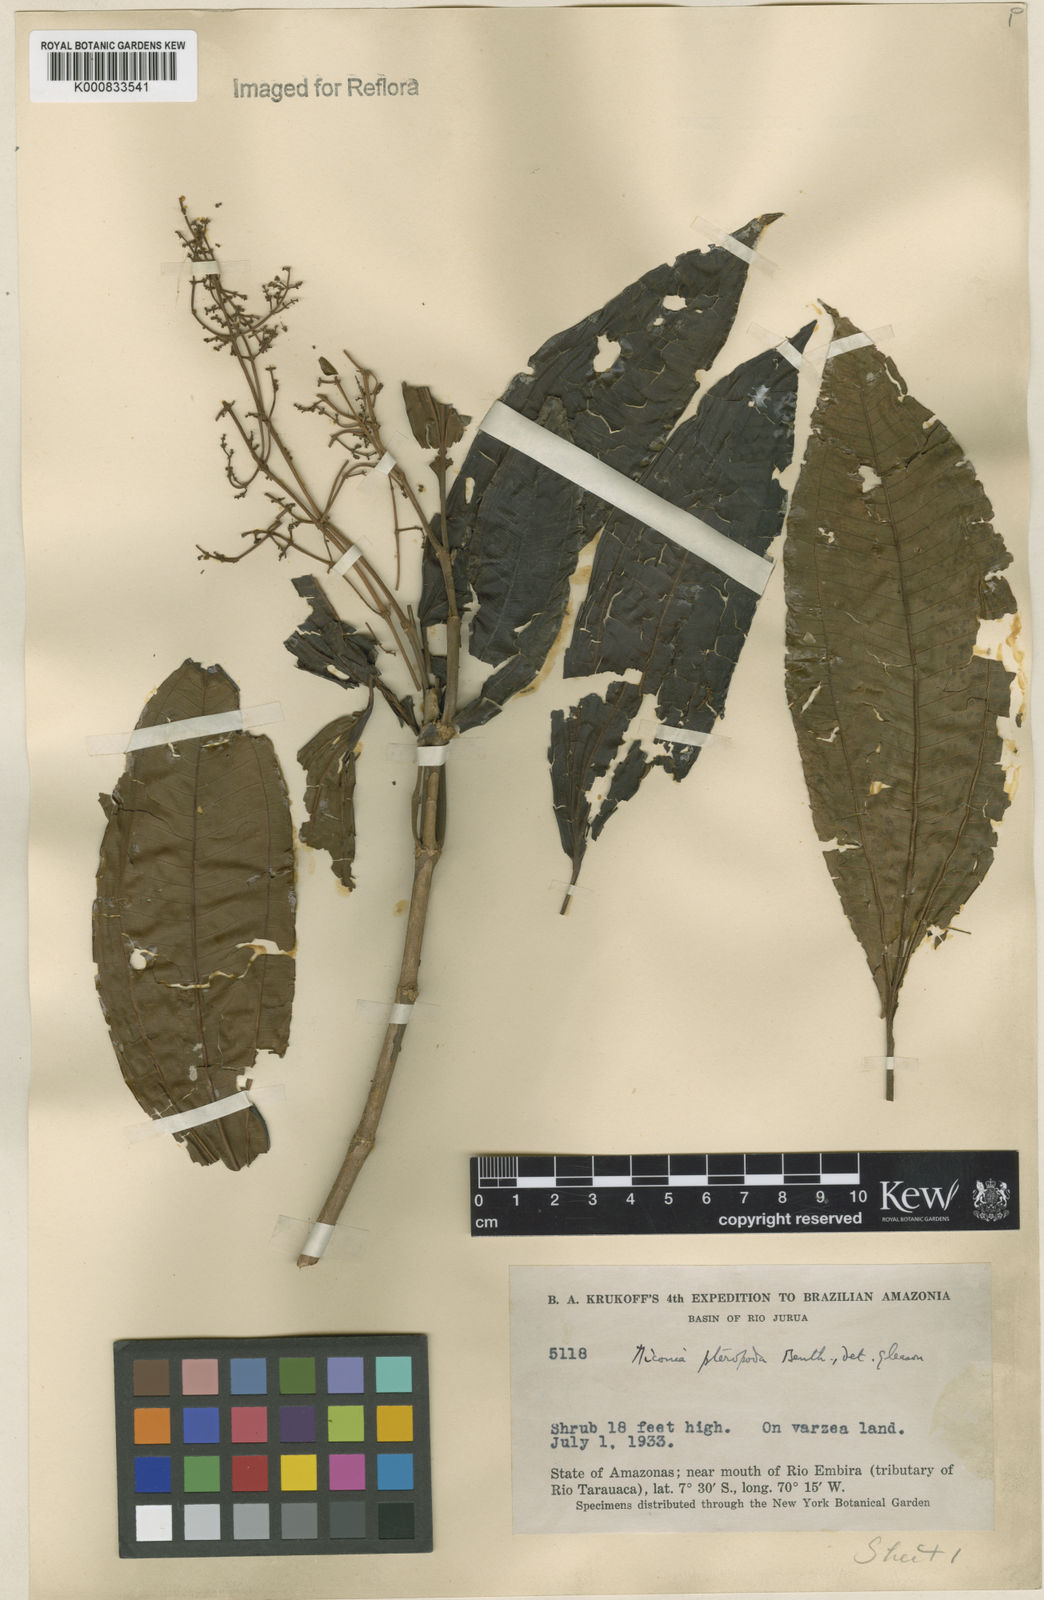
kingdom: Plantae
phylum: Tracheophyta
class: Magnoliopsida
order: Myrtales
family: Melastomataceae
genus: Miconia
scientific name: Miconia prasina
